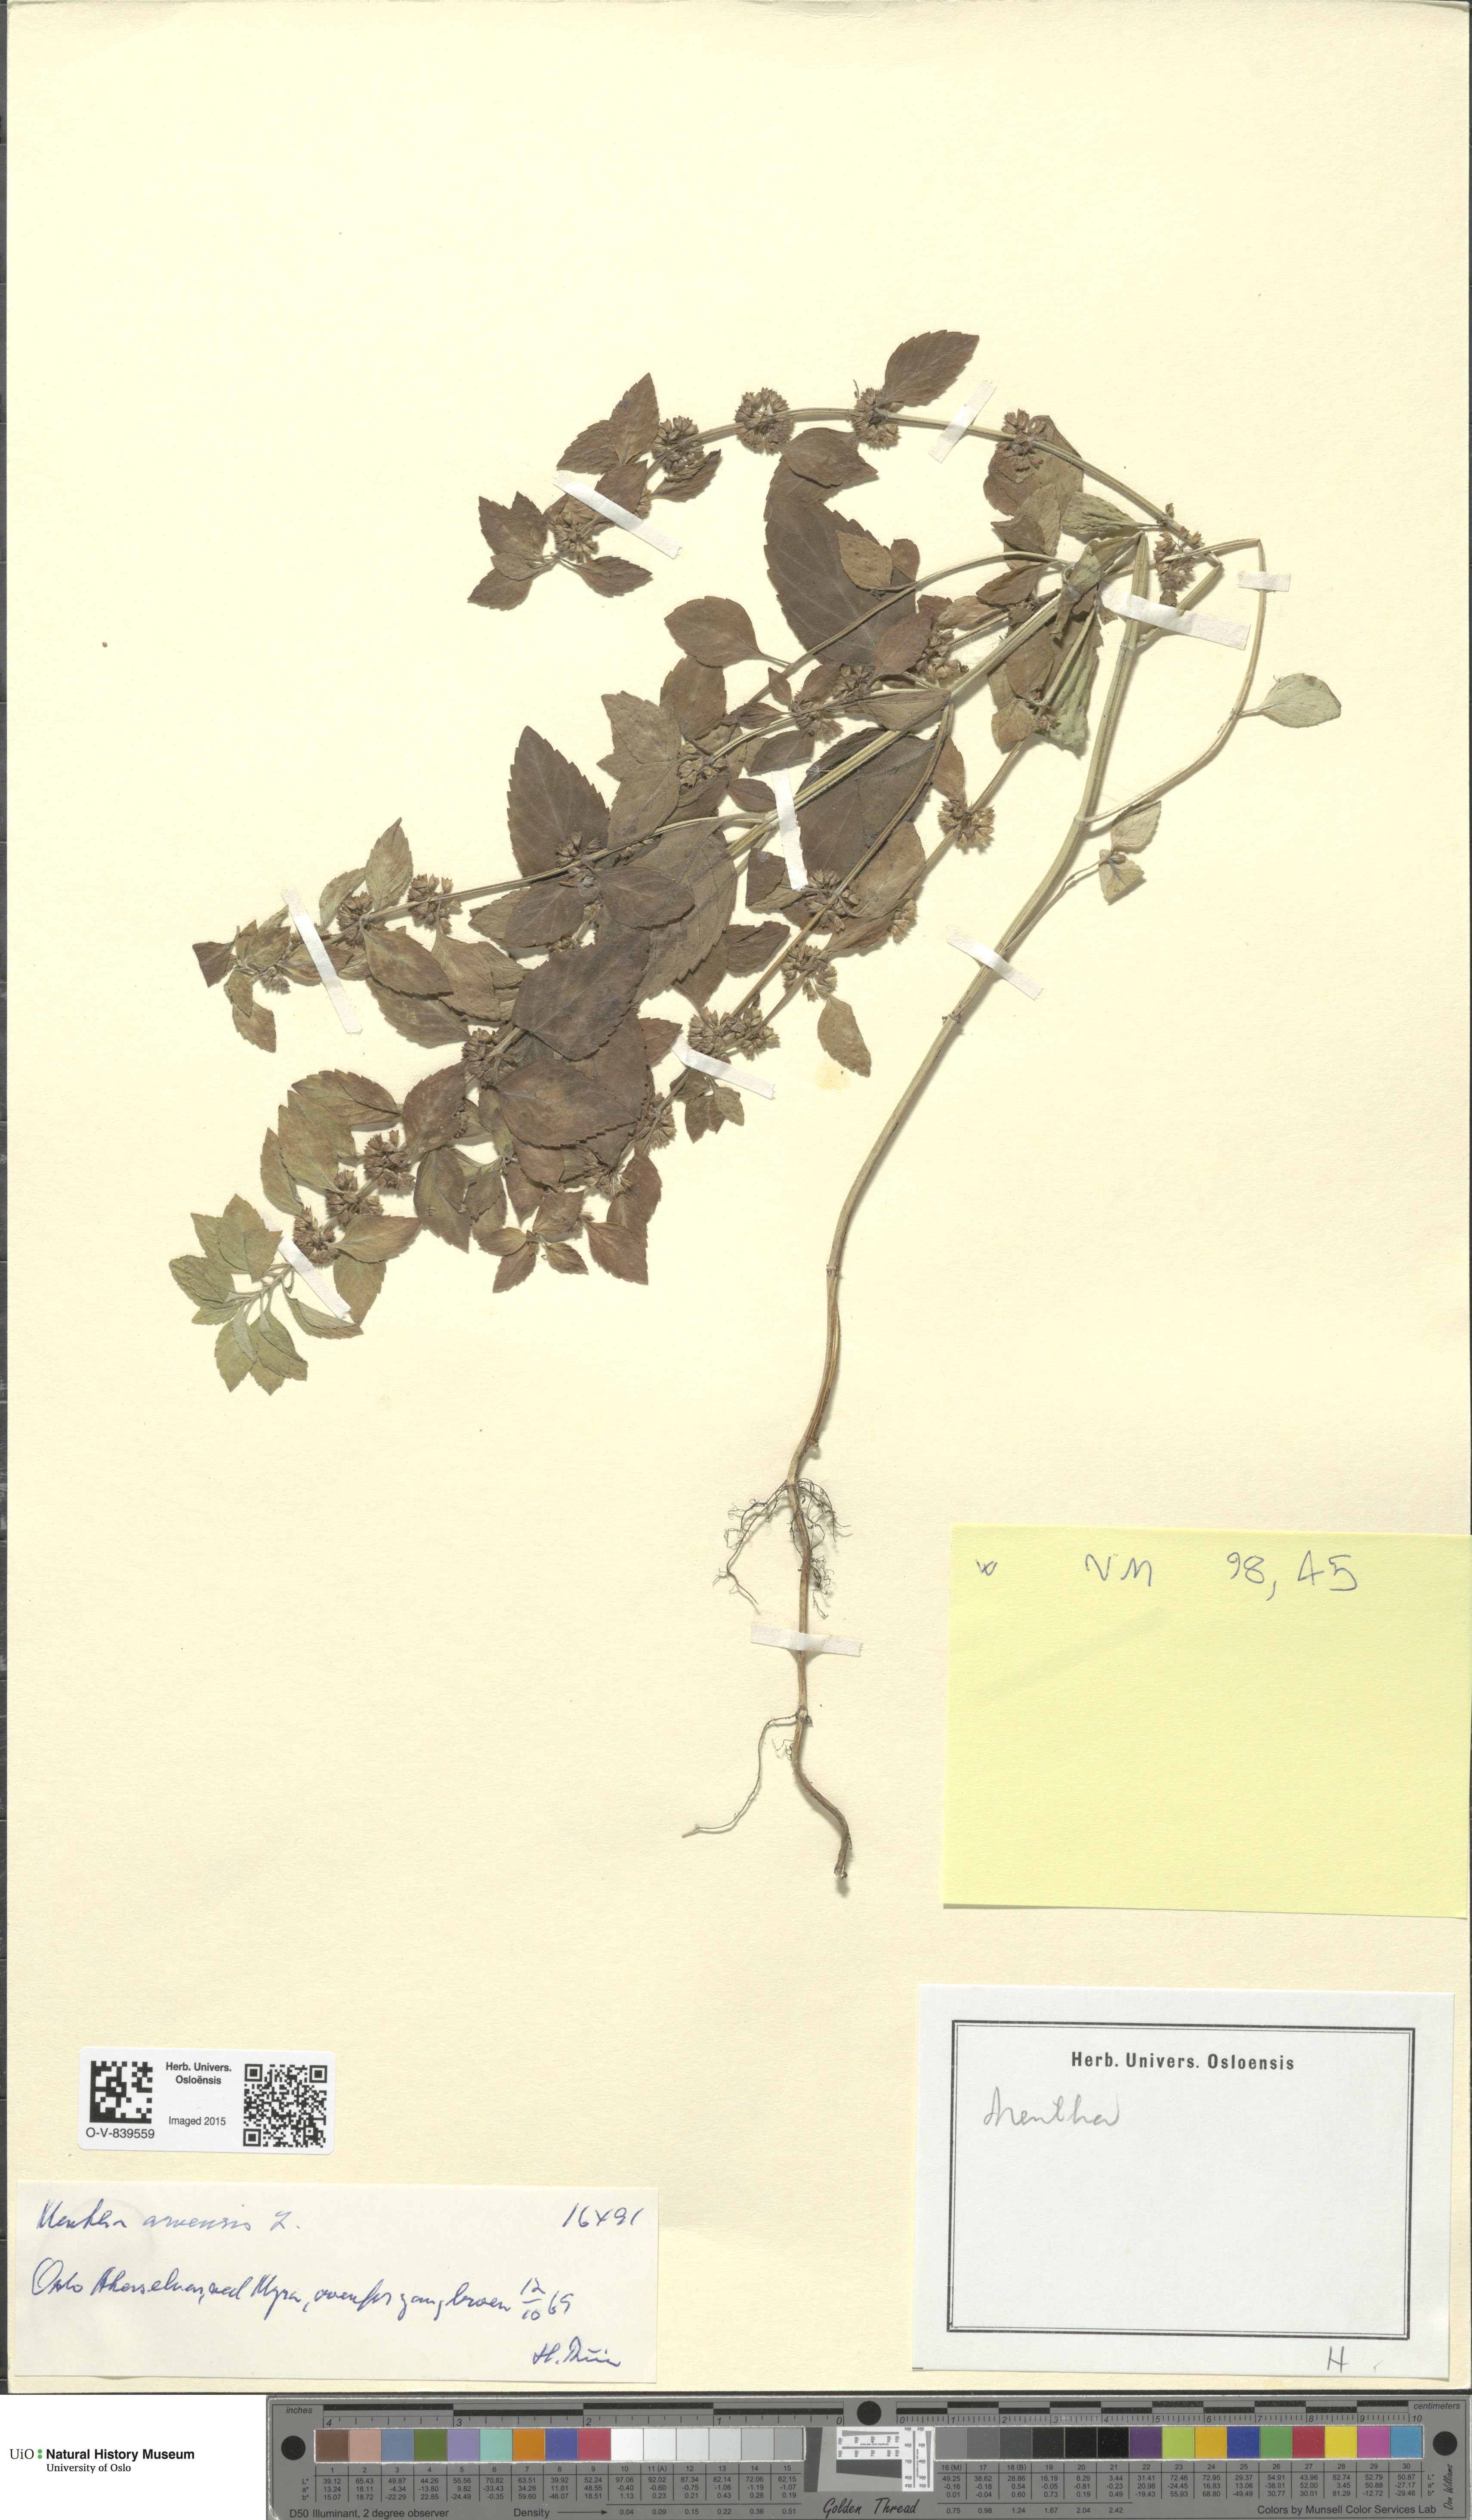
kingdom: Plantae
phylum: Tracheophyta
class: Magnoliopsida
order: Lamiales
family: Lamiaceae
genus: Mentha
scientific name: Mentha arvensis
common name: Corn mint
